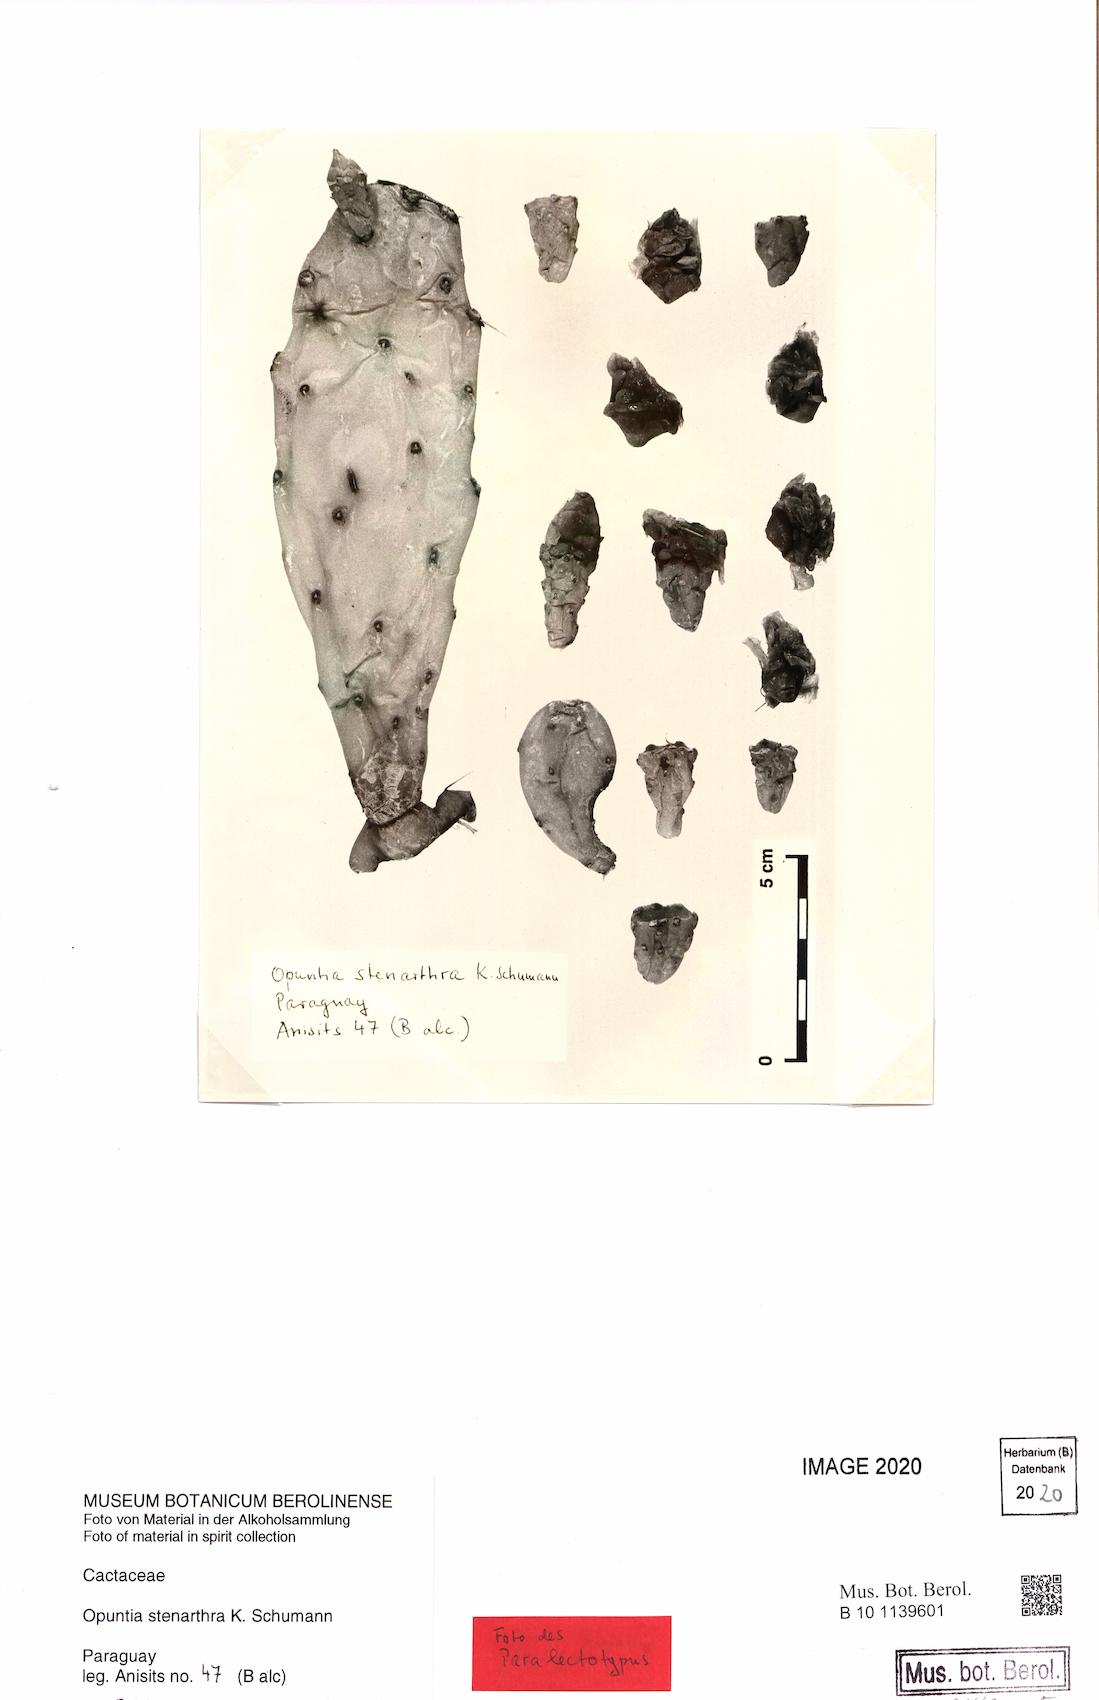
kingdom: Plantae
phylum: Tracheophyta
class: Magnoliopsida
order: Caryophyllales
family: Cactaceae
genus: Opuntia
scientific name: Opuntia stenarthra
